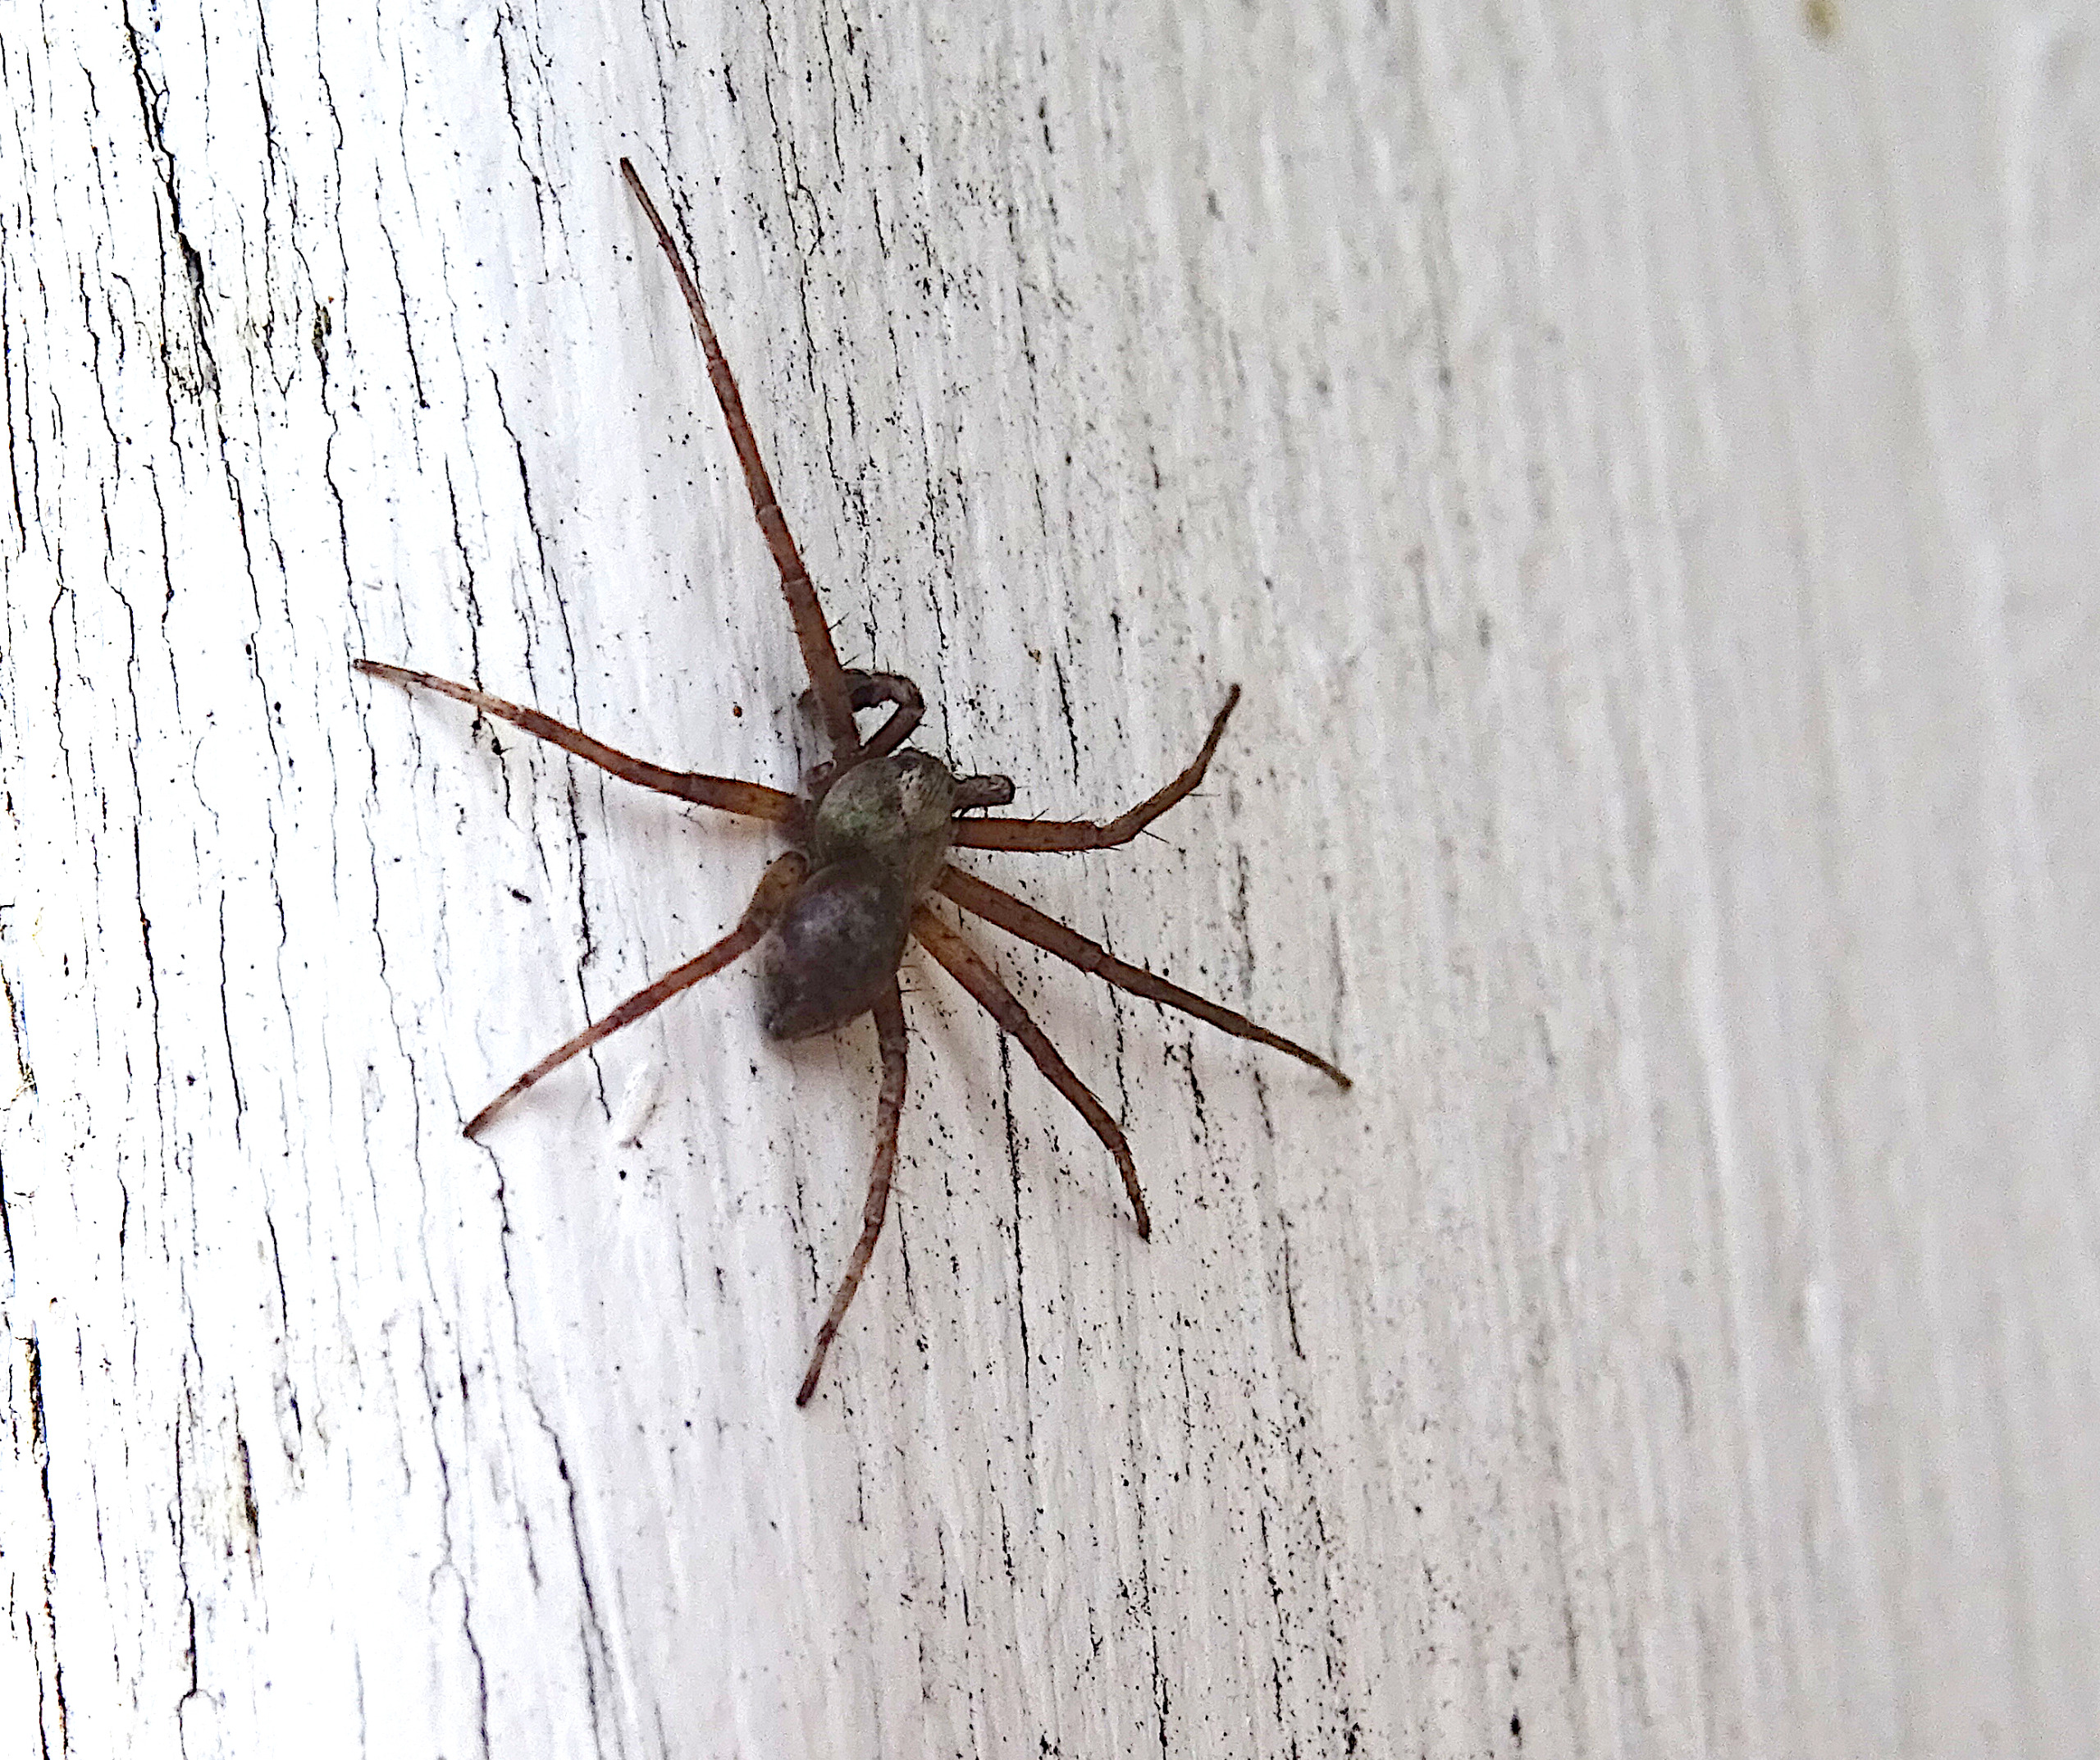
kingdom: Animalia
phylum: Arthropoda
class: Arachnida
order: Araneae
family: Philodromidae
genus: Philodromus
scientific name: Philodromus
